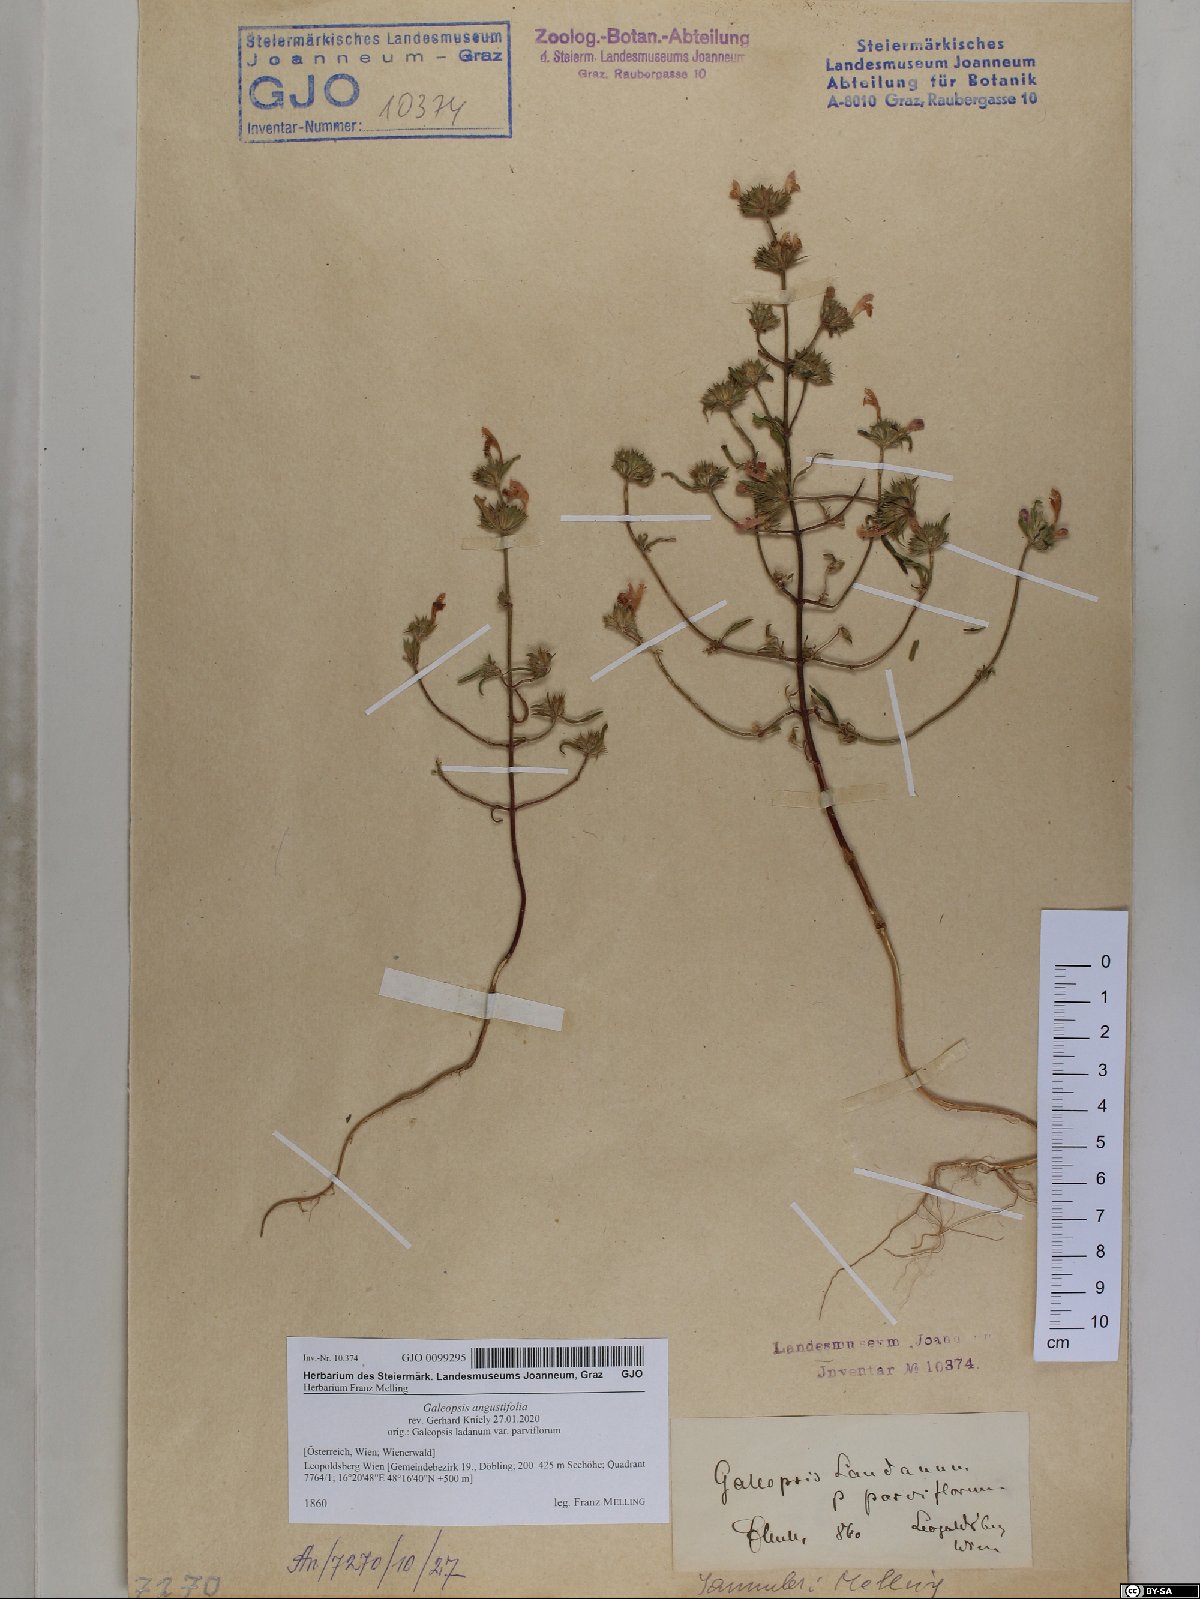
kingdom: Plantae
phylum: Tracheophyta
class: Magnoliopsida
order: Lamiales
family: Lamiaceae
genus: Galeopsis
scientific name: Galeopsis angustifolia
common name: Red hemp-nettle
